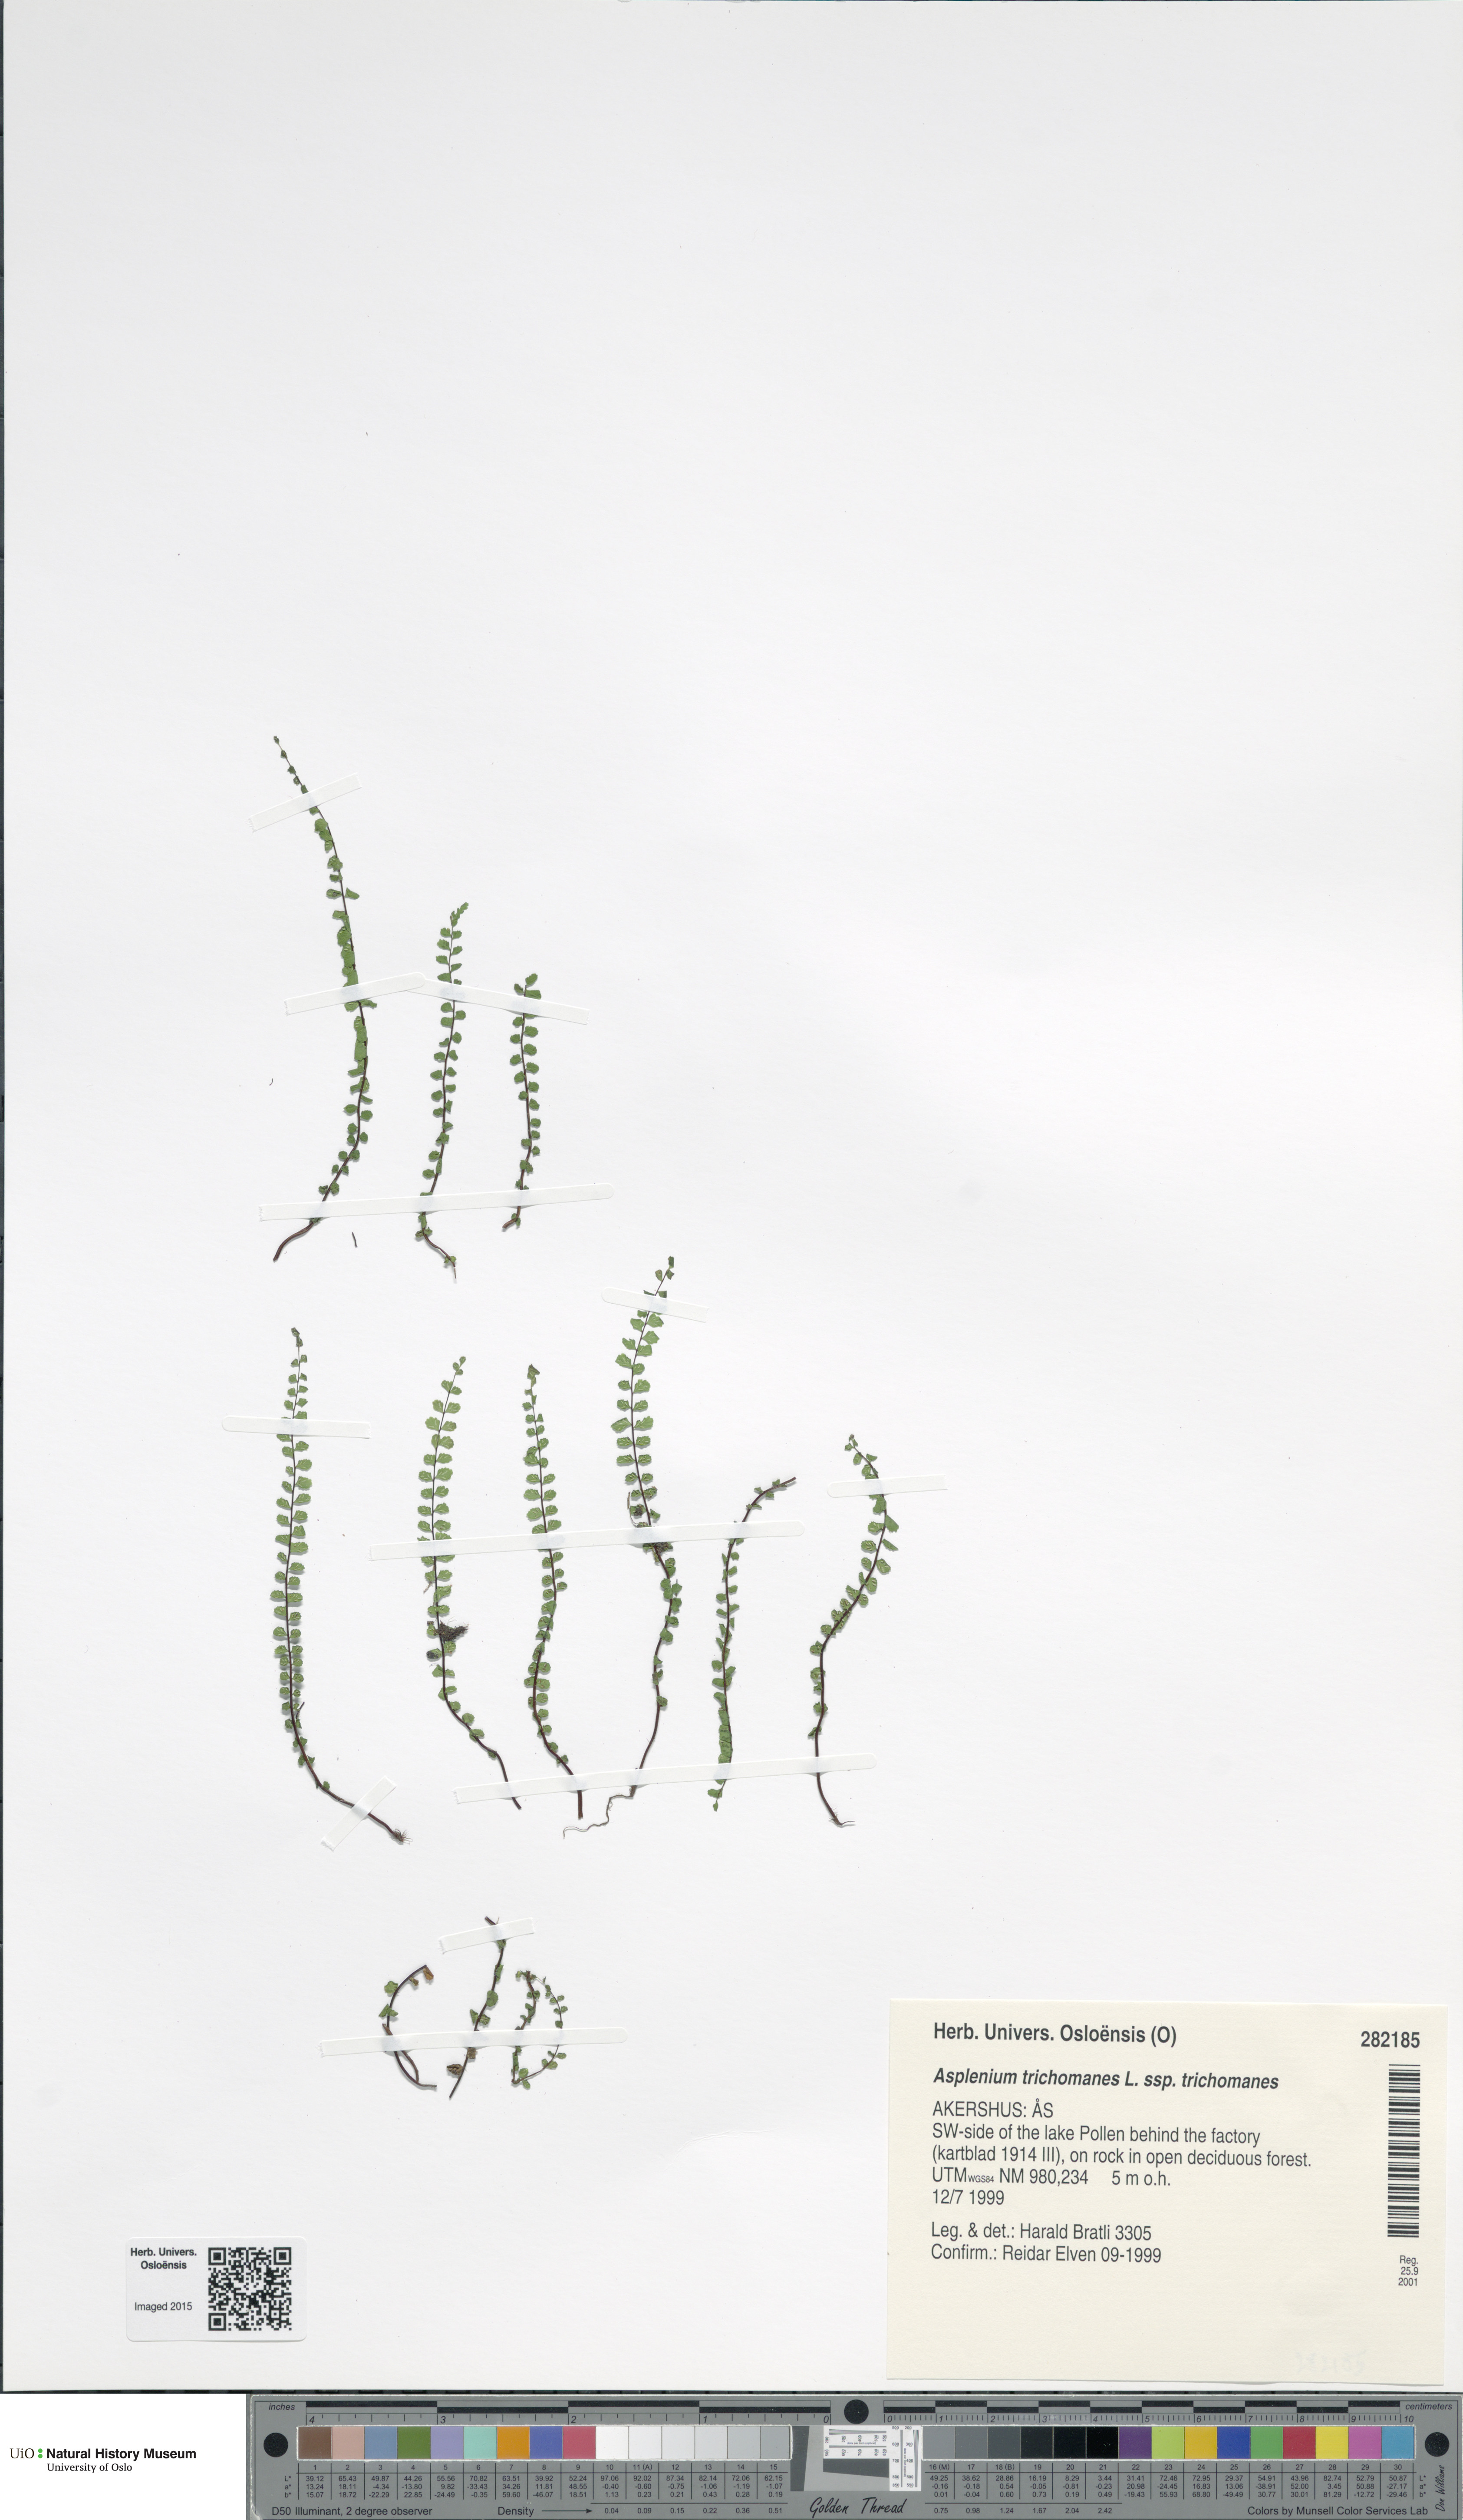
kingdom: Plantae
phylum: Tracheophyta
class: Polypodiopsida
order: Polypodiales
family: Aspleniaceae
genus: Asplenium
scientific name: Asplenium trichomanes
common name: Maidenhair spleenwort
